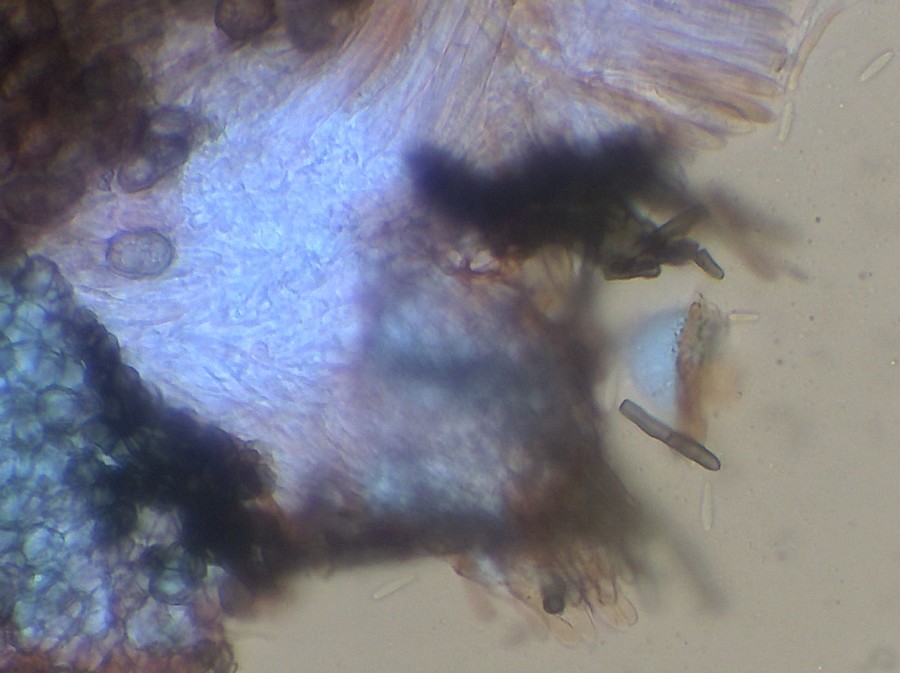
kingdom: Fungi
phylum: Ascomycota
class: Leotiomycetes
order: Helotiales
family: Ploettnerulaceae
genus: Pyrenopeziza
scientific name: Pyrenopeziza urticicola
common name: nælde-kerneskive
